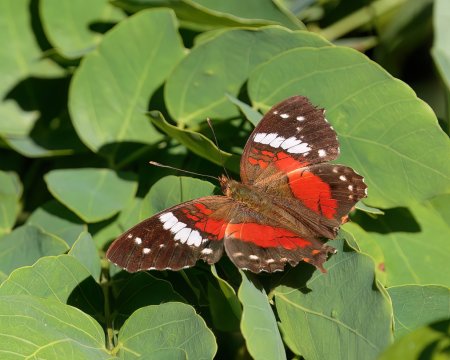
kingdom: Animalia
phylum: Arthropoda
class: Insecta
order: Lepidoptera
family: Nymphalidae
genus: Anartia
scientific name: Anartia amathea
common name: Red Peacock
